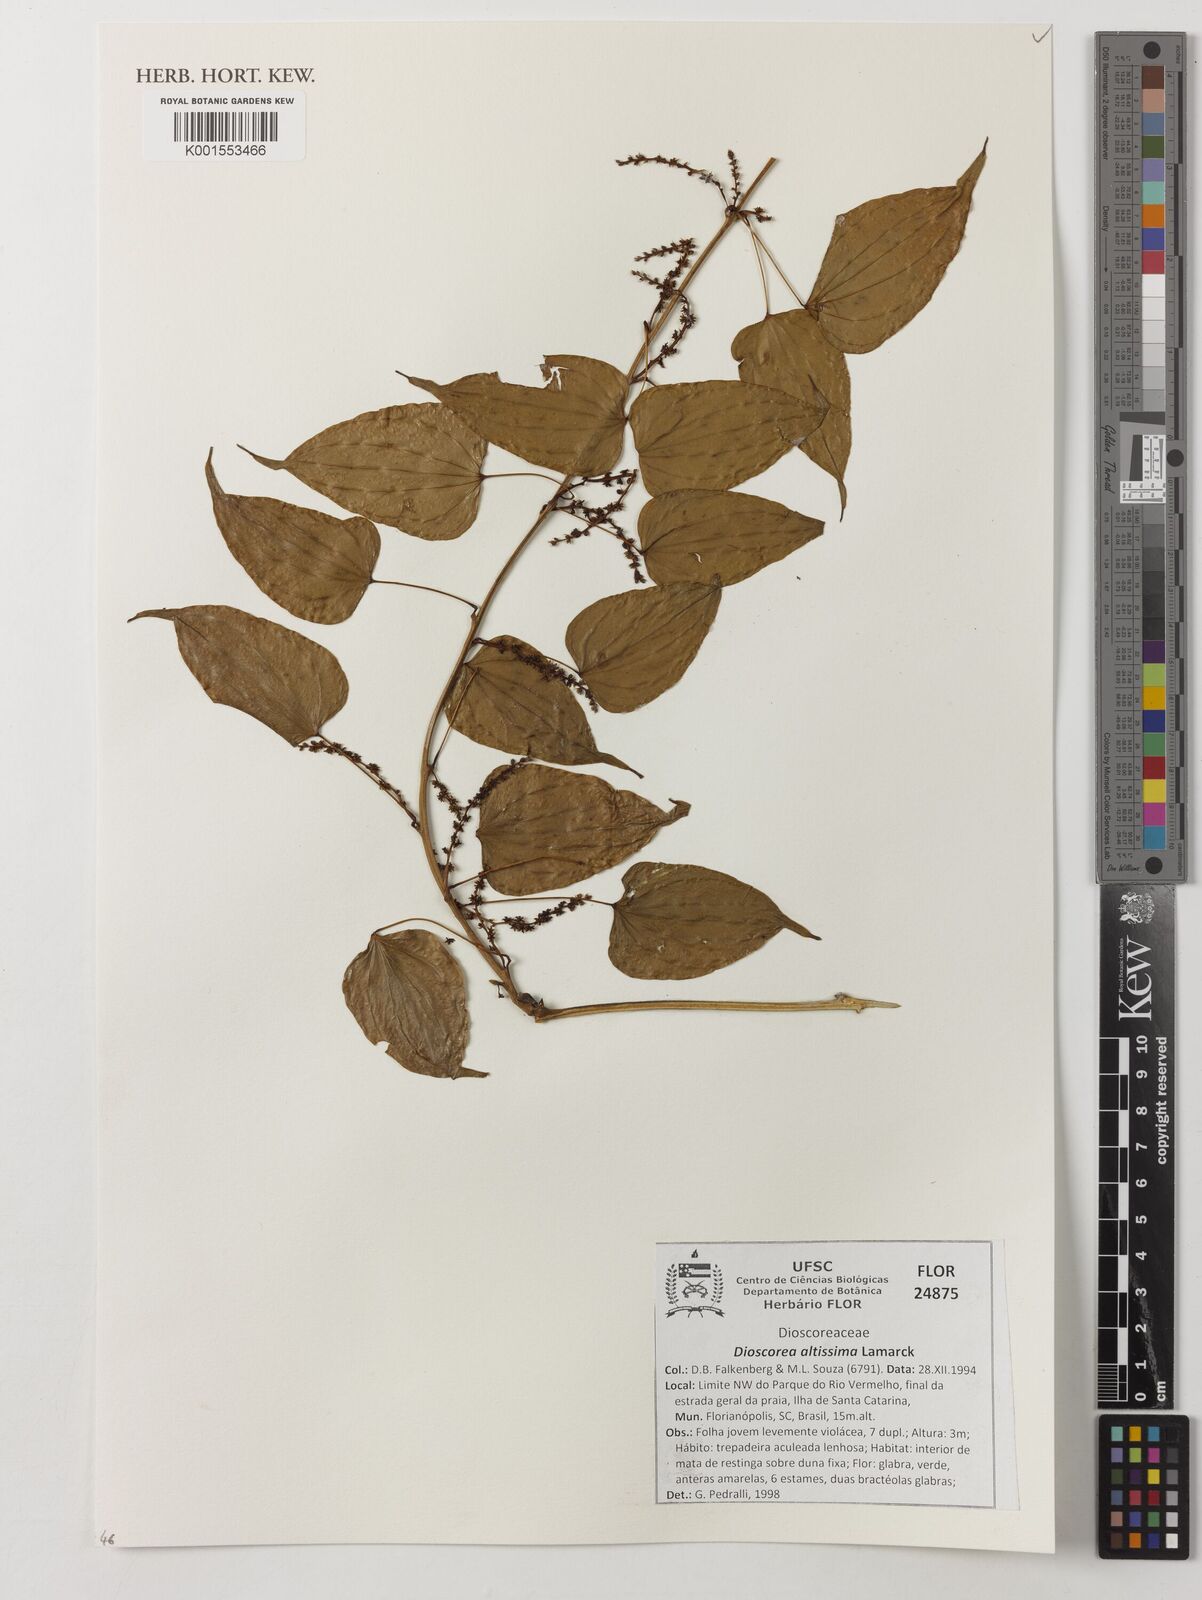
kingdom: Plantae
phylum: Tracheophyta
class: Liliopsida
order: Dioscoreales
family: Dioscoreaceae
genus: Dioscorea
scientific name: Dioscorea cayenensis
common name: Attoto yam
